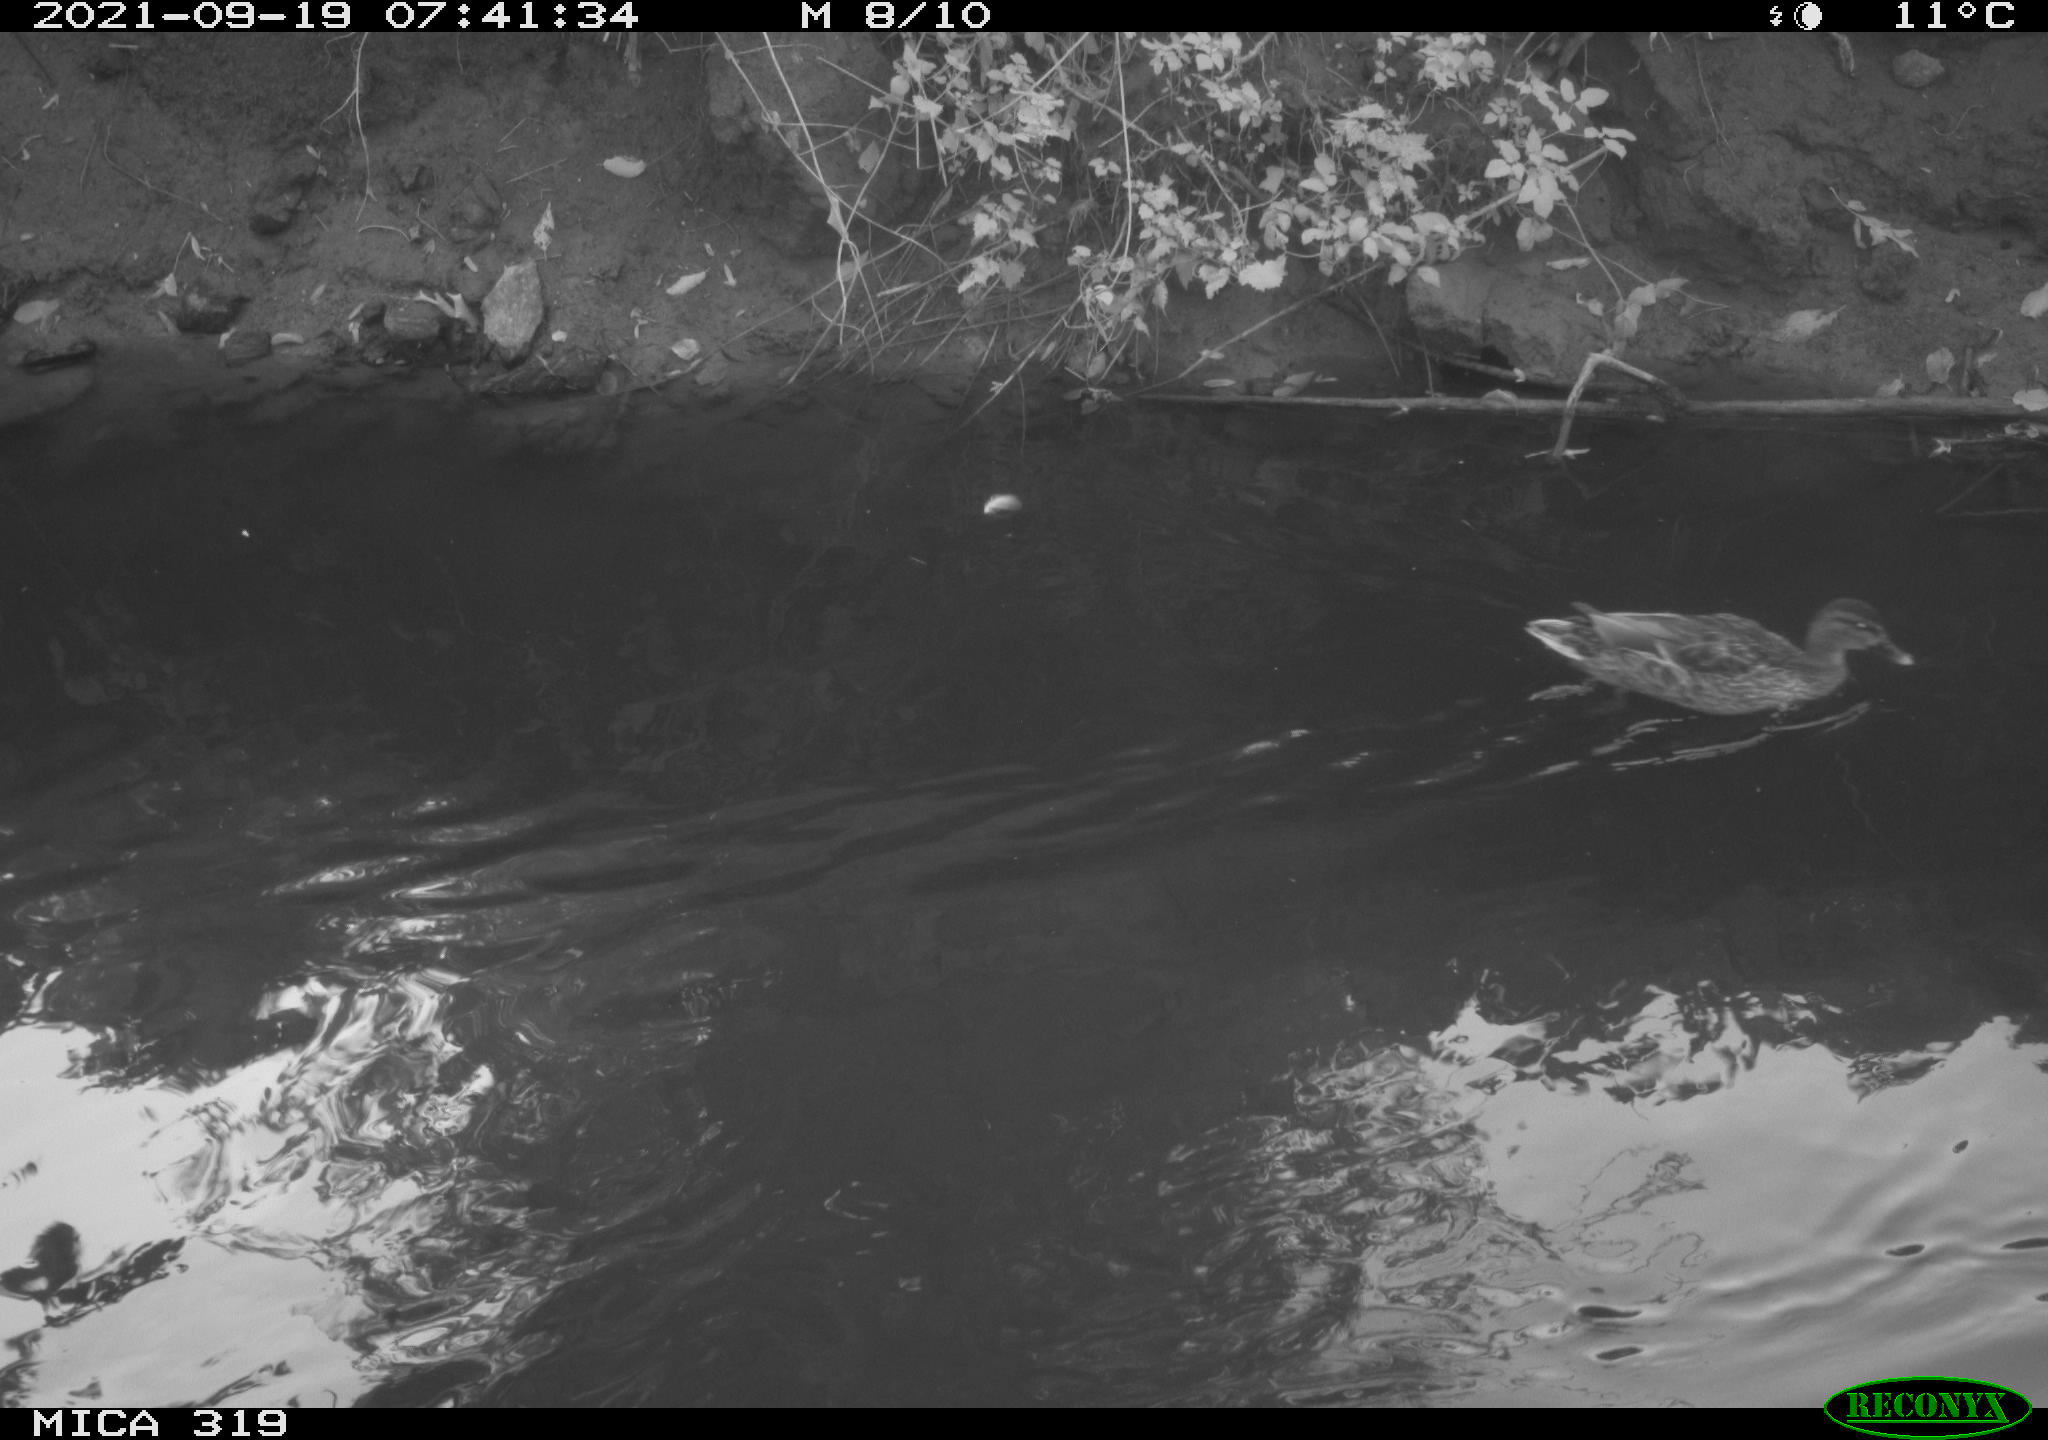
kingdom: Animalia
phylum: Chordata
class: Aves
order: Anseriformes
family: Anatidae
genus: Anas
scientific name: Anas platyrhynchos
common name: Mallard
